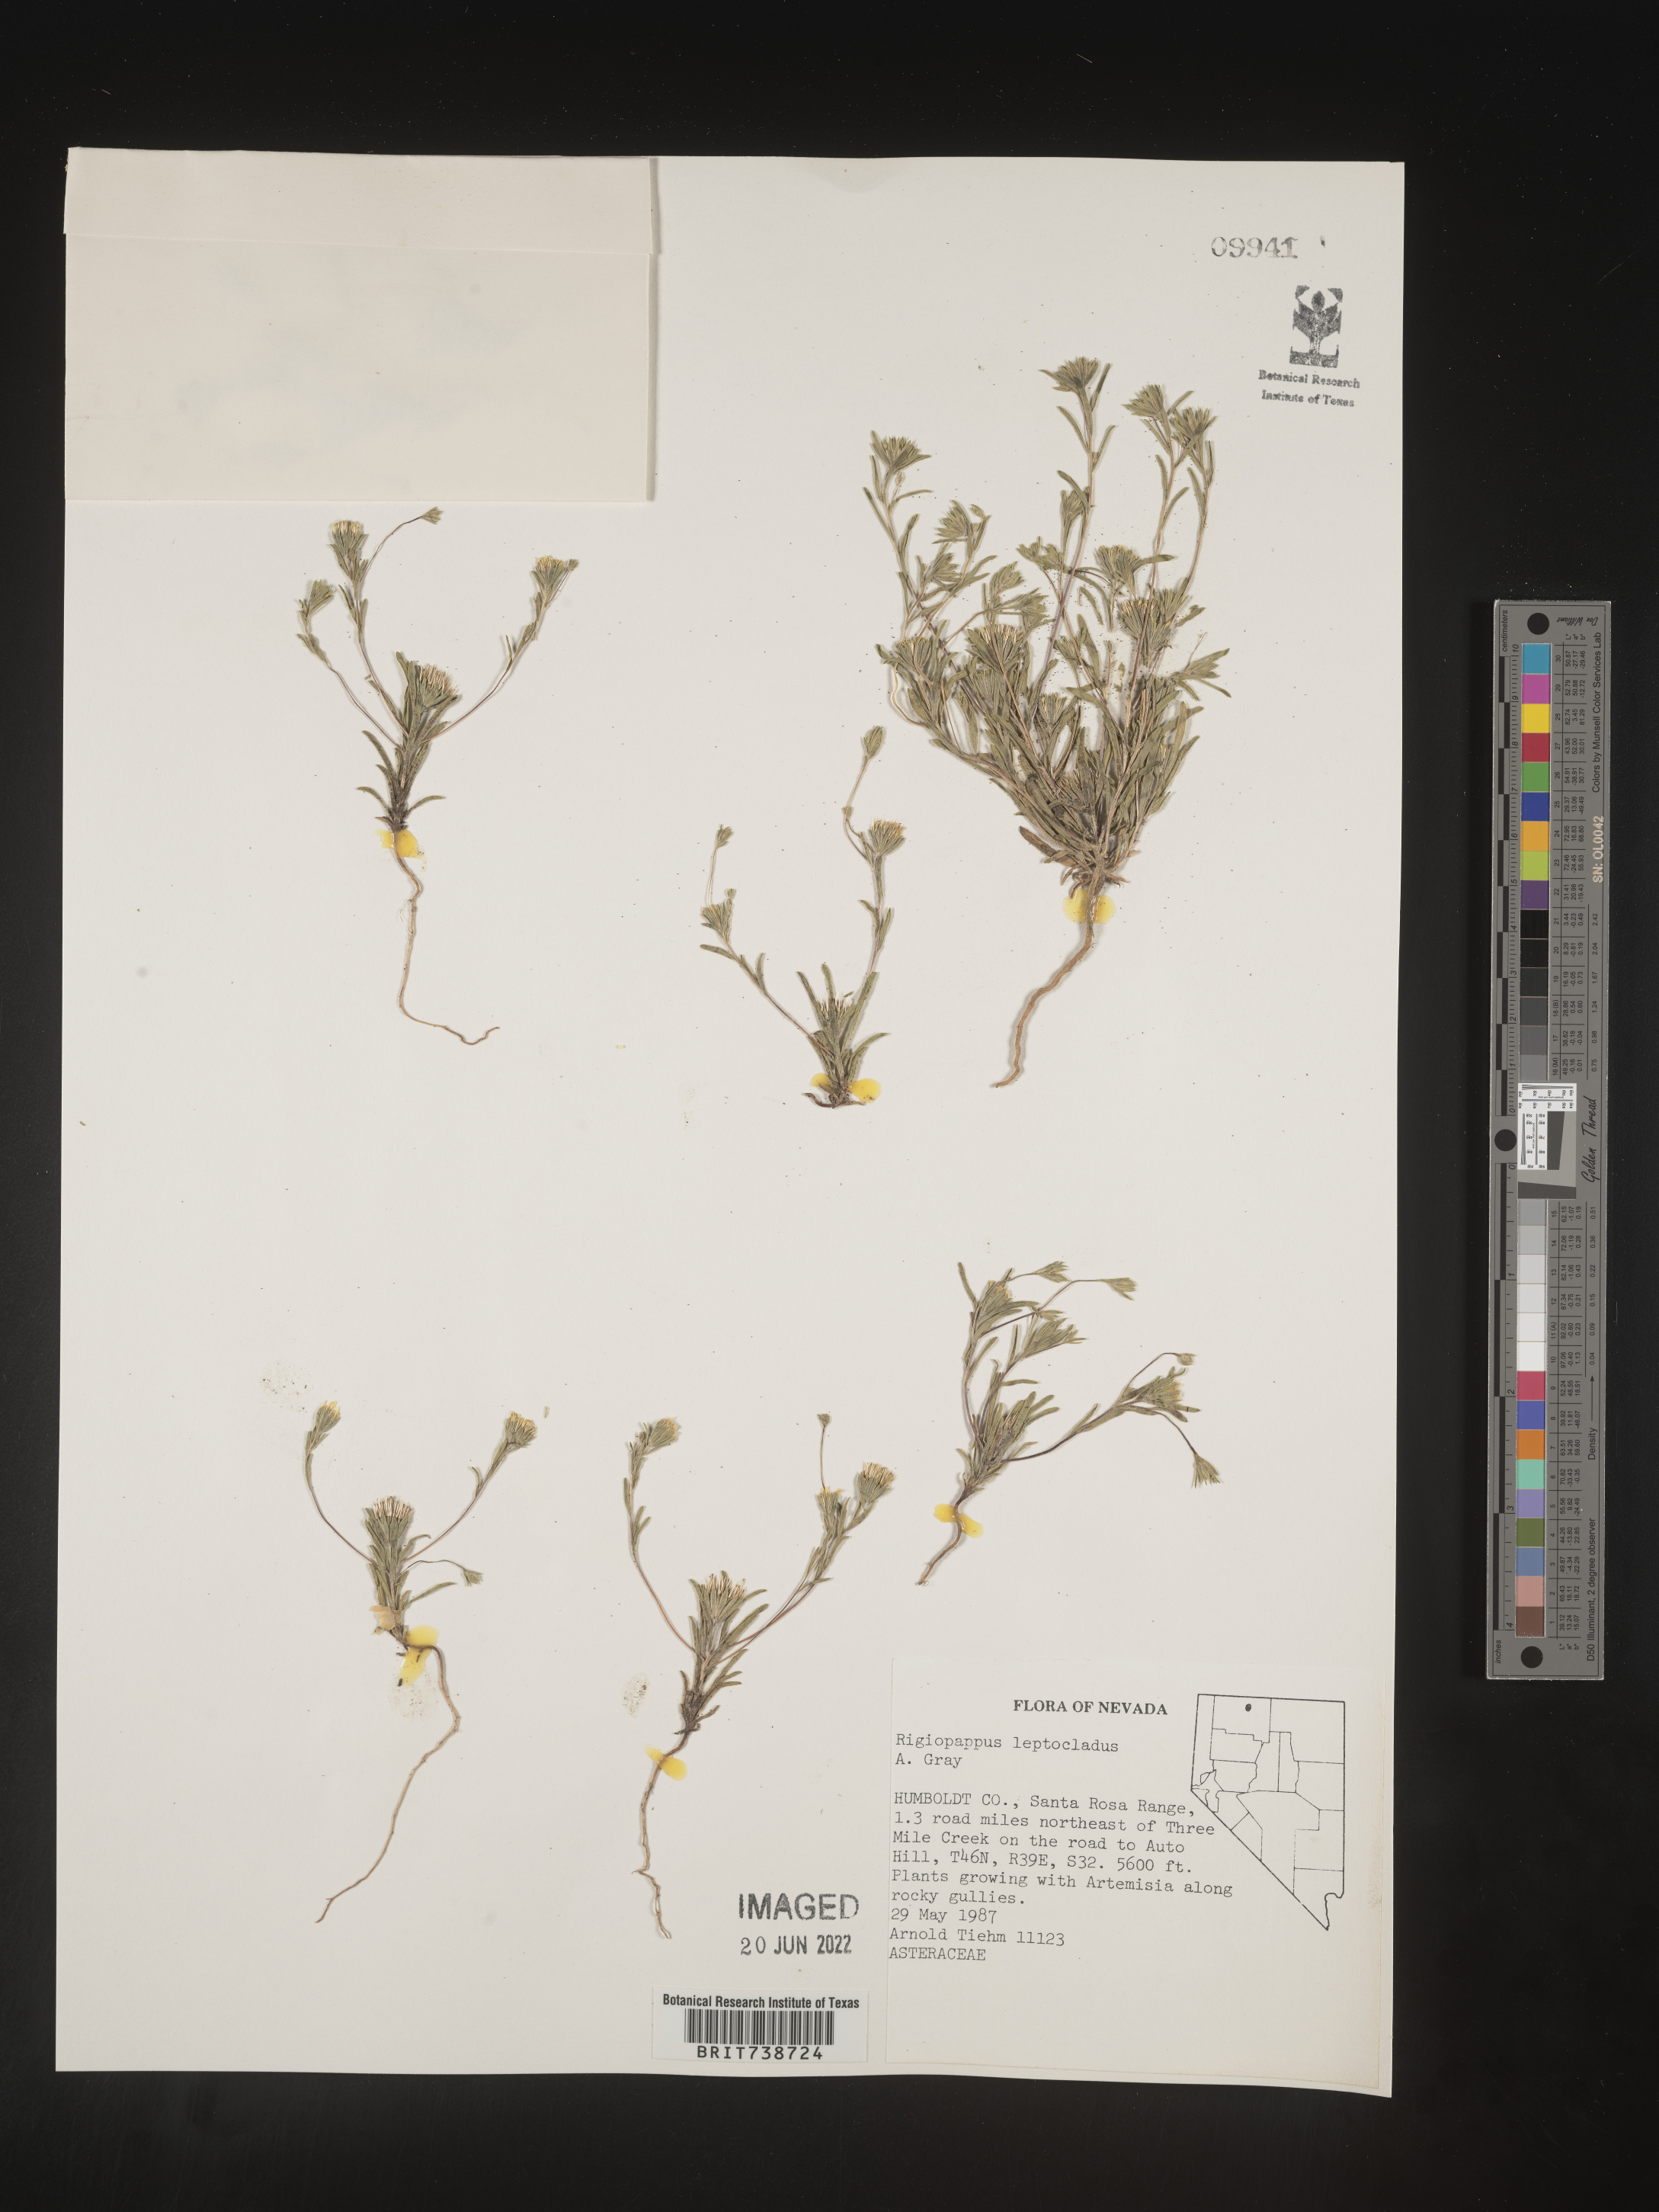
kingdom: Plantae
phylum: Tracheophyta
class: Magnoliopsida
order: Asterales
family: Asteraceae
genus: Rigiopappus
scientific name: Rigiopappus
